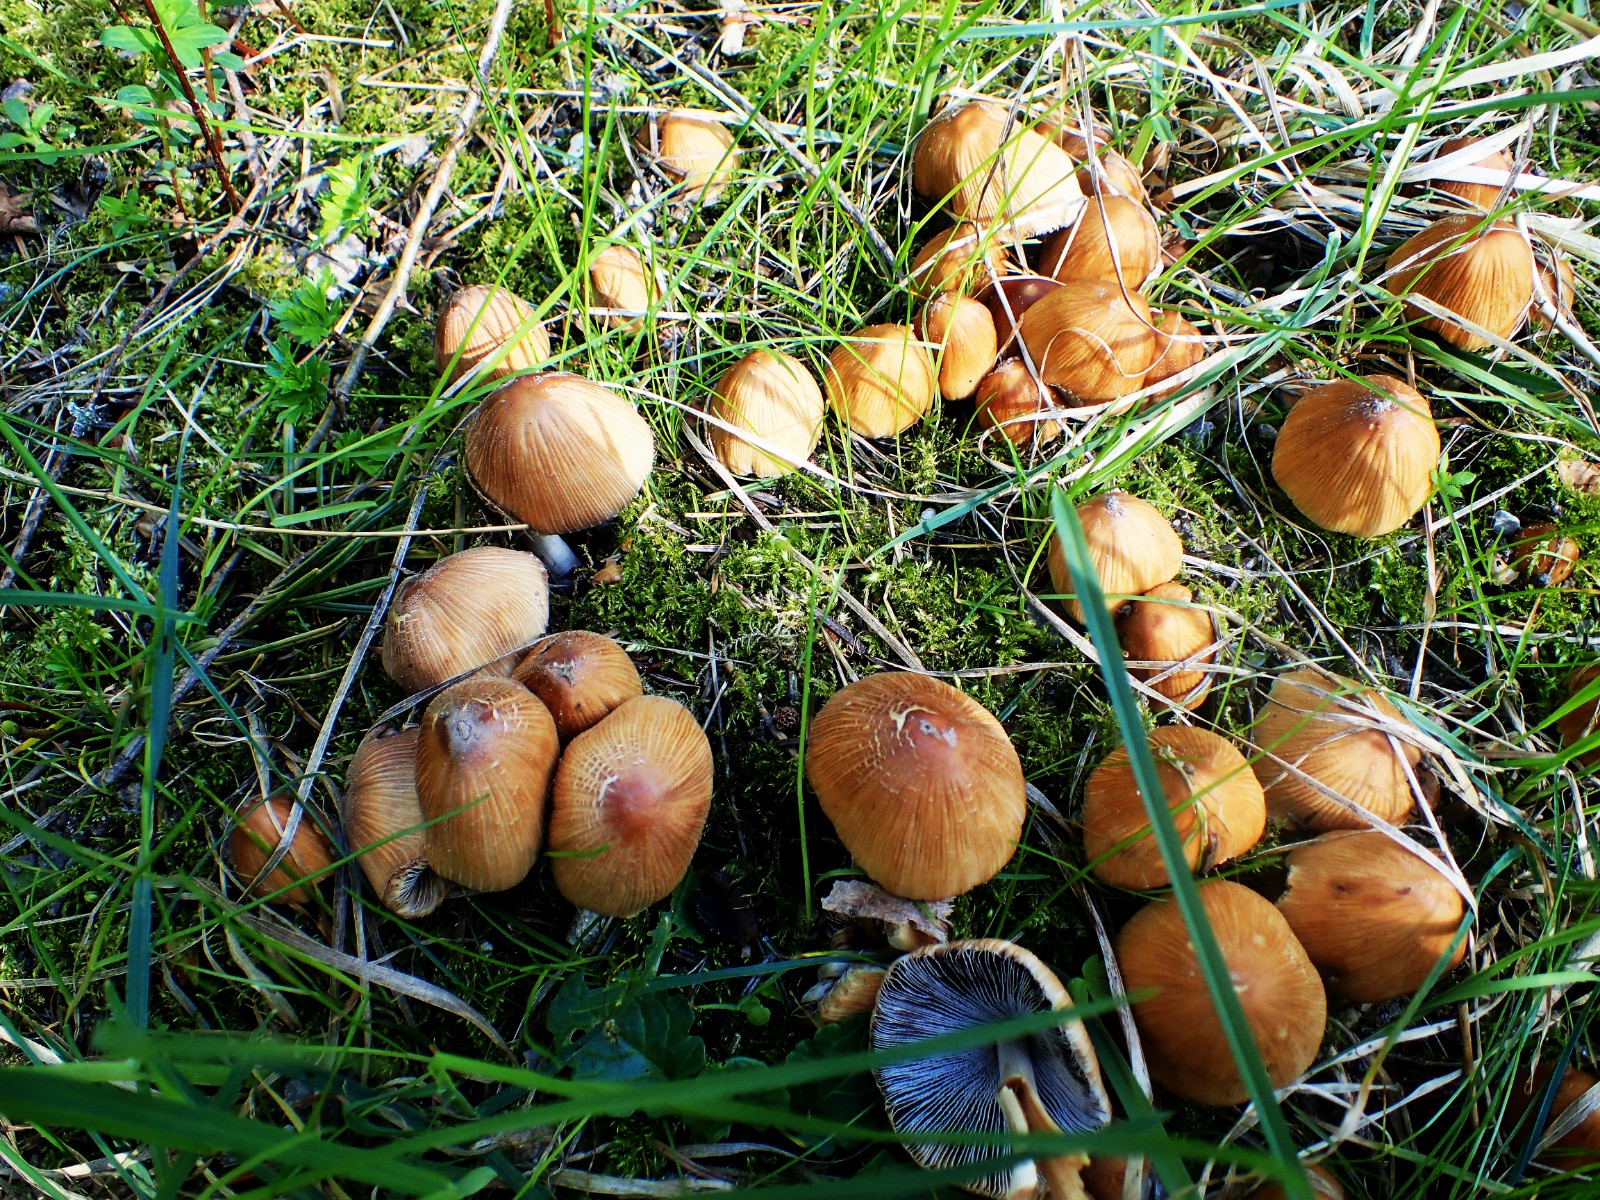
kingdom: Fungi
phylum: Basidiomycota
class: Agaricomycetes
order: Agaricales
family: Psathyrellaceae
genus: Coprinellus
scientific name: Coprinellus micaceus
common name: glimmer-blækhat
